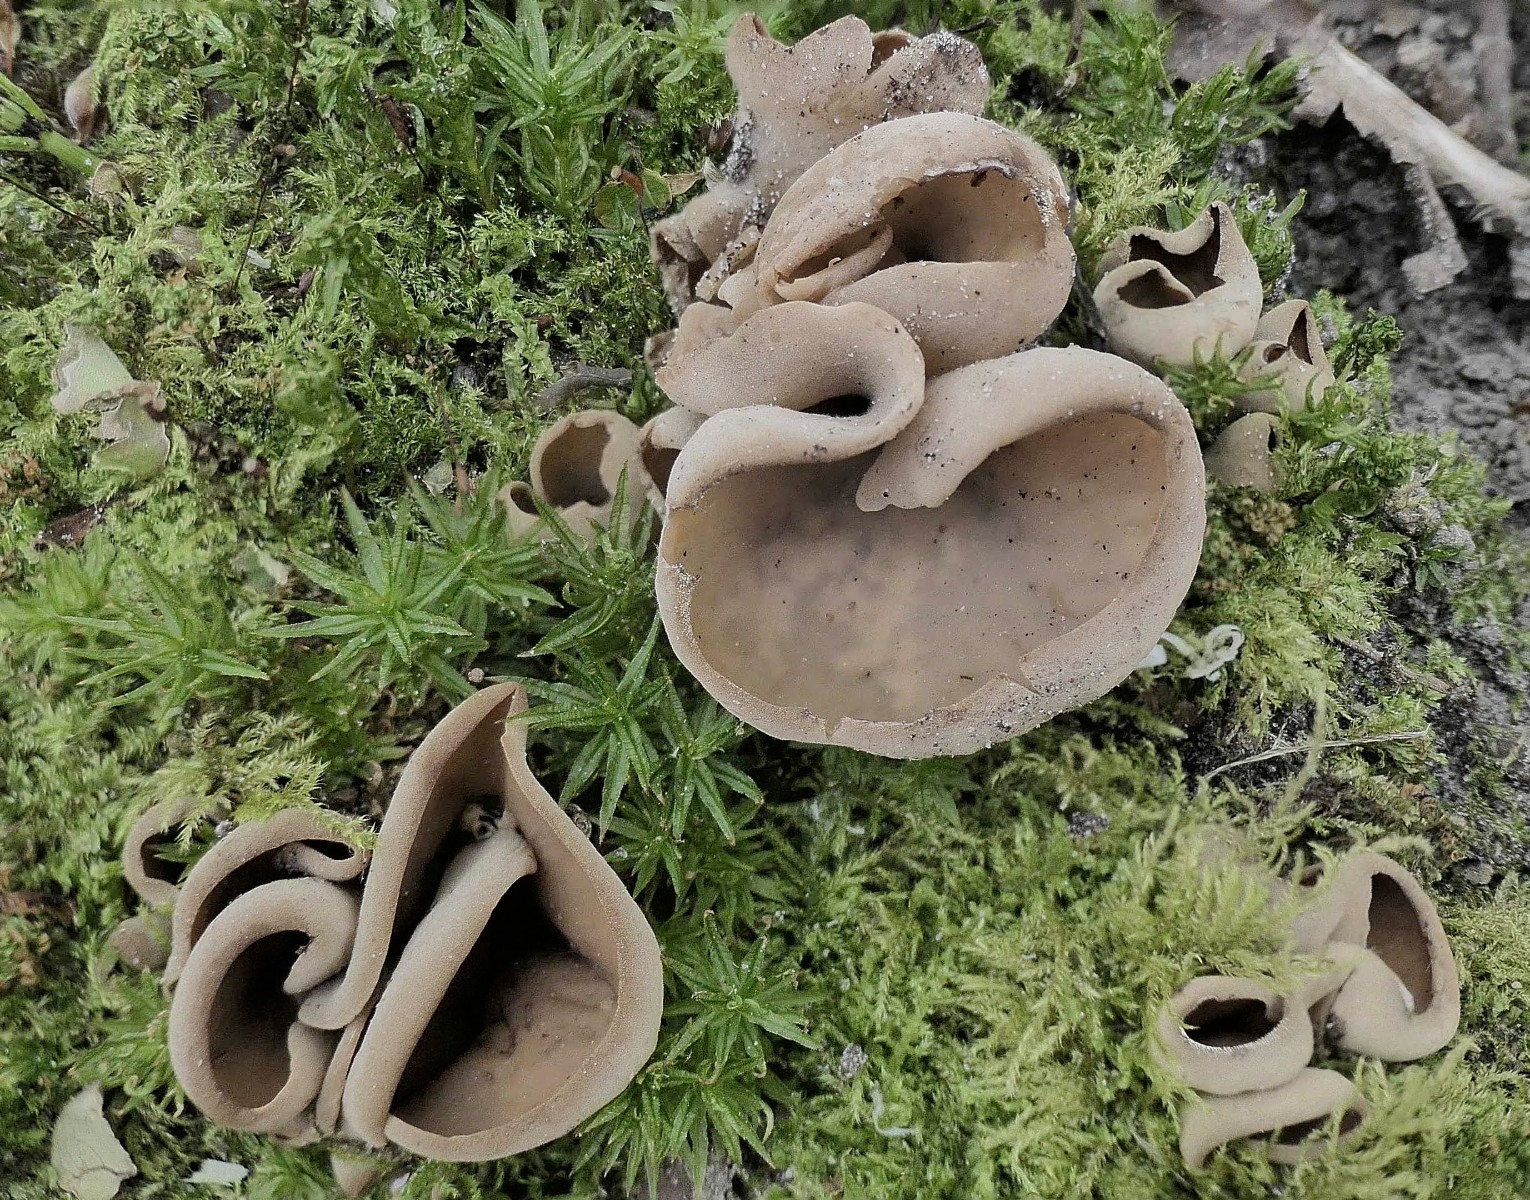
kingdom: Fungi
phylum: Ascomycota
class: Pezizomycetes
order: Pezizales
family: Otideaceae
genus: Otidea
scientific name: Otidea alutacea
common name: læder-ørebæger
